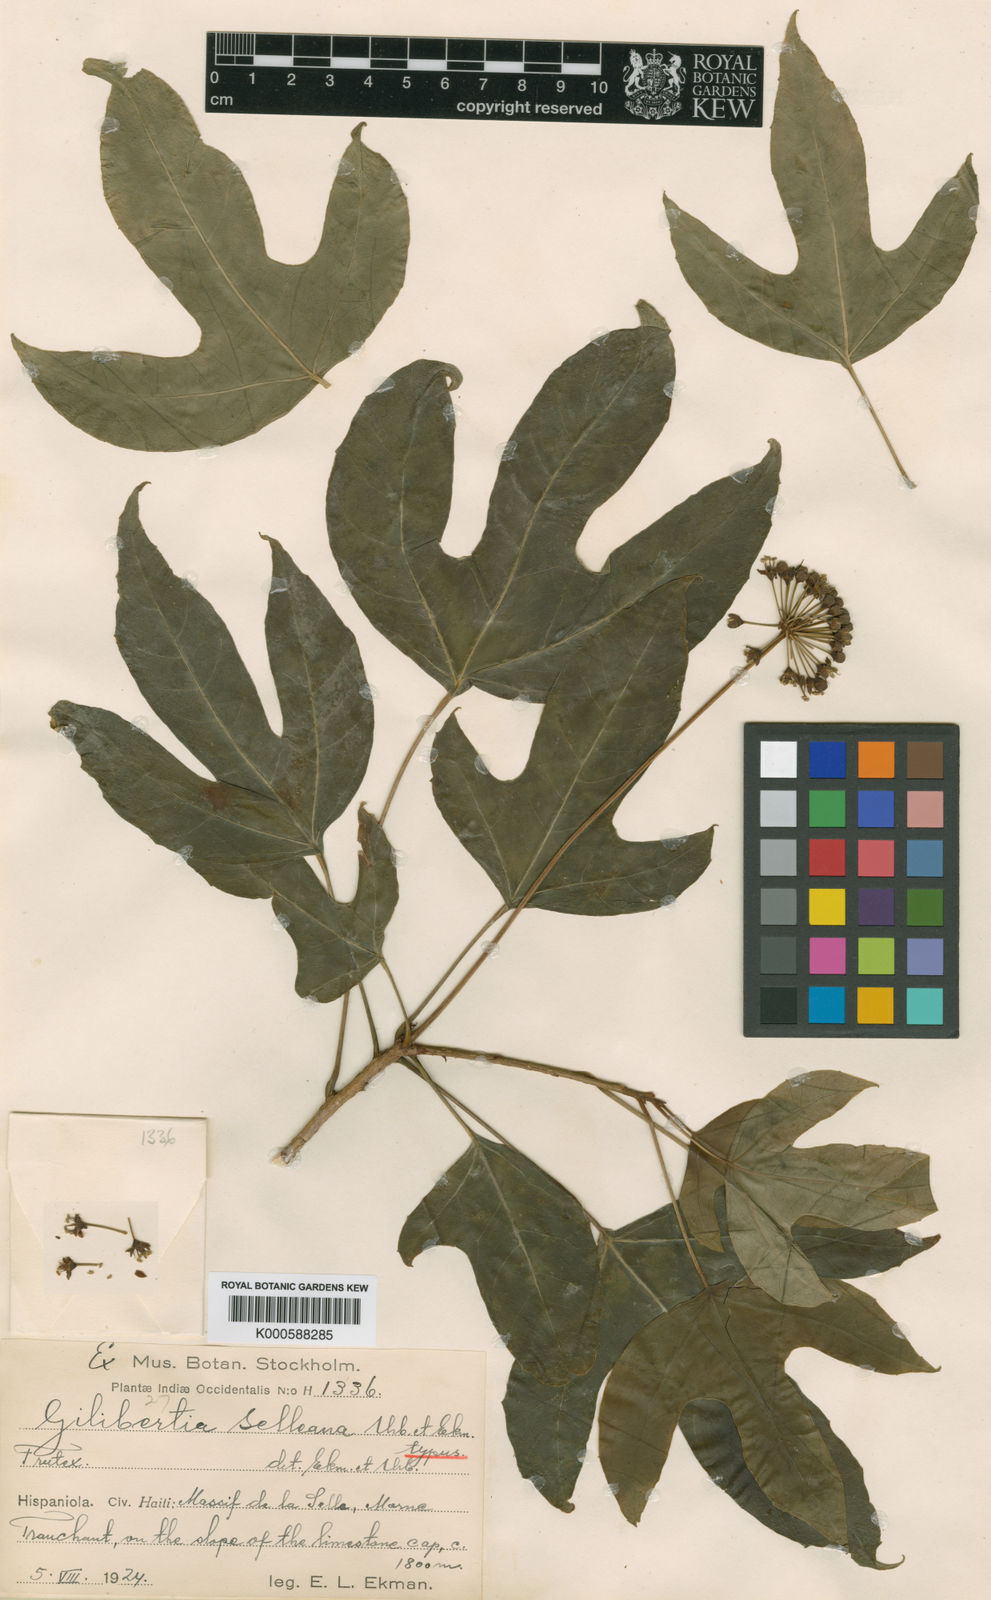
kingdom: Plantae
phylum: Tracheophyta
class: Magnoliopsida
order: Apiales
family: Araliaceae
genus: Dendropanax
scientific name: Dendropanax selleanus
